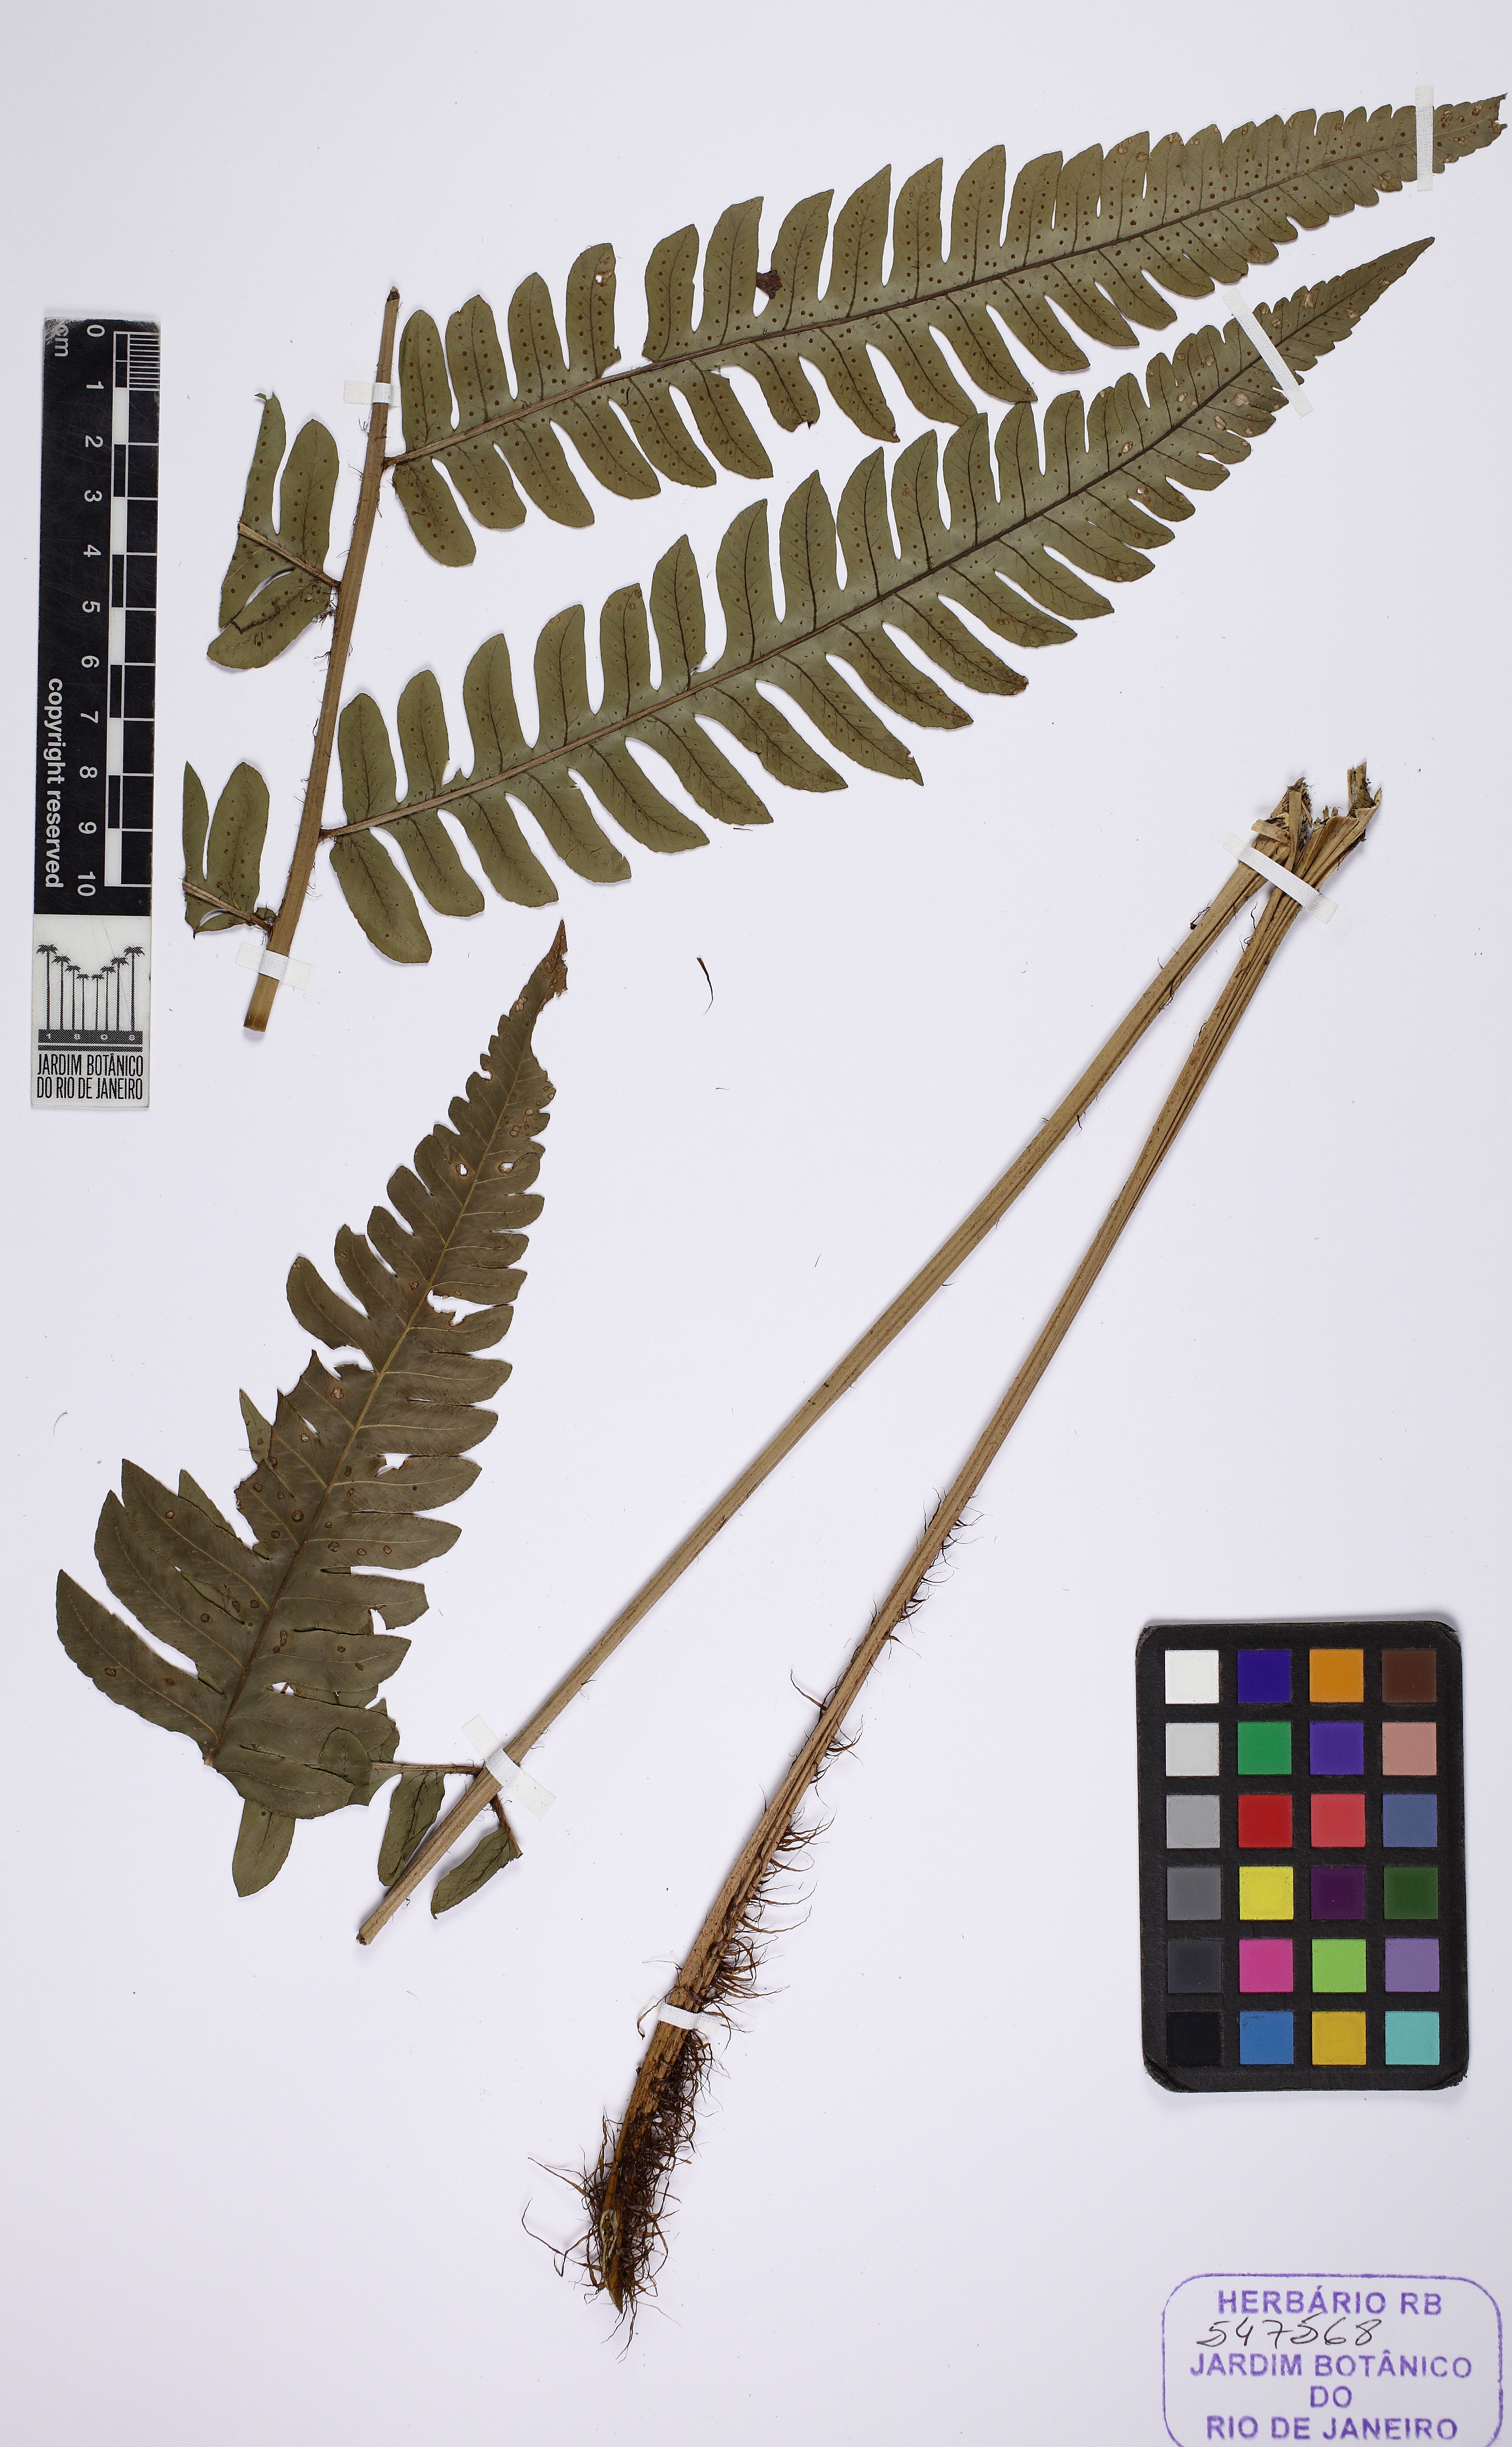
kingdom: Plantae
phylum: Tracheophyta
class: Polypodiopsida
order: Polypodiales
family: Dryopteridaceae
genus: Megalastrum
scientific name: Megalastrum grande
